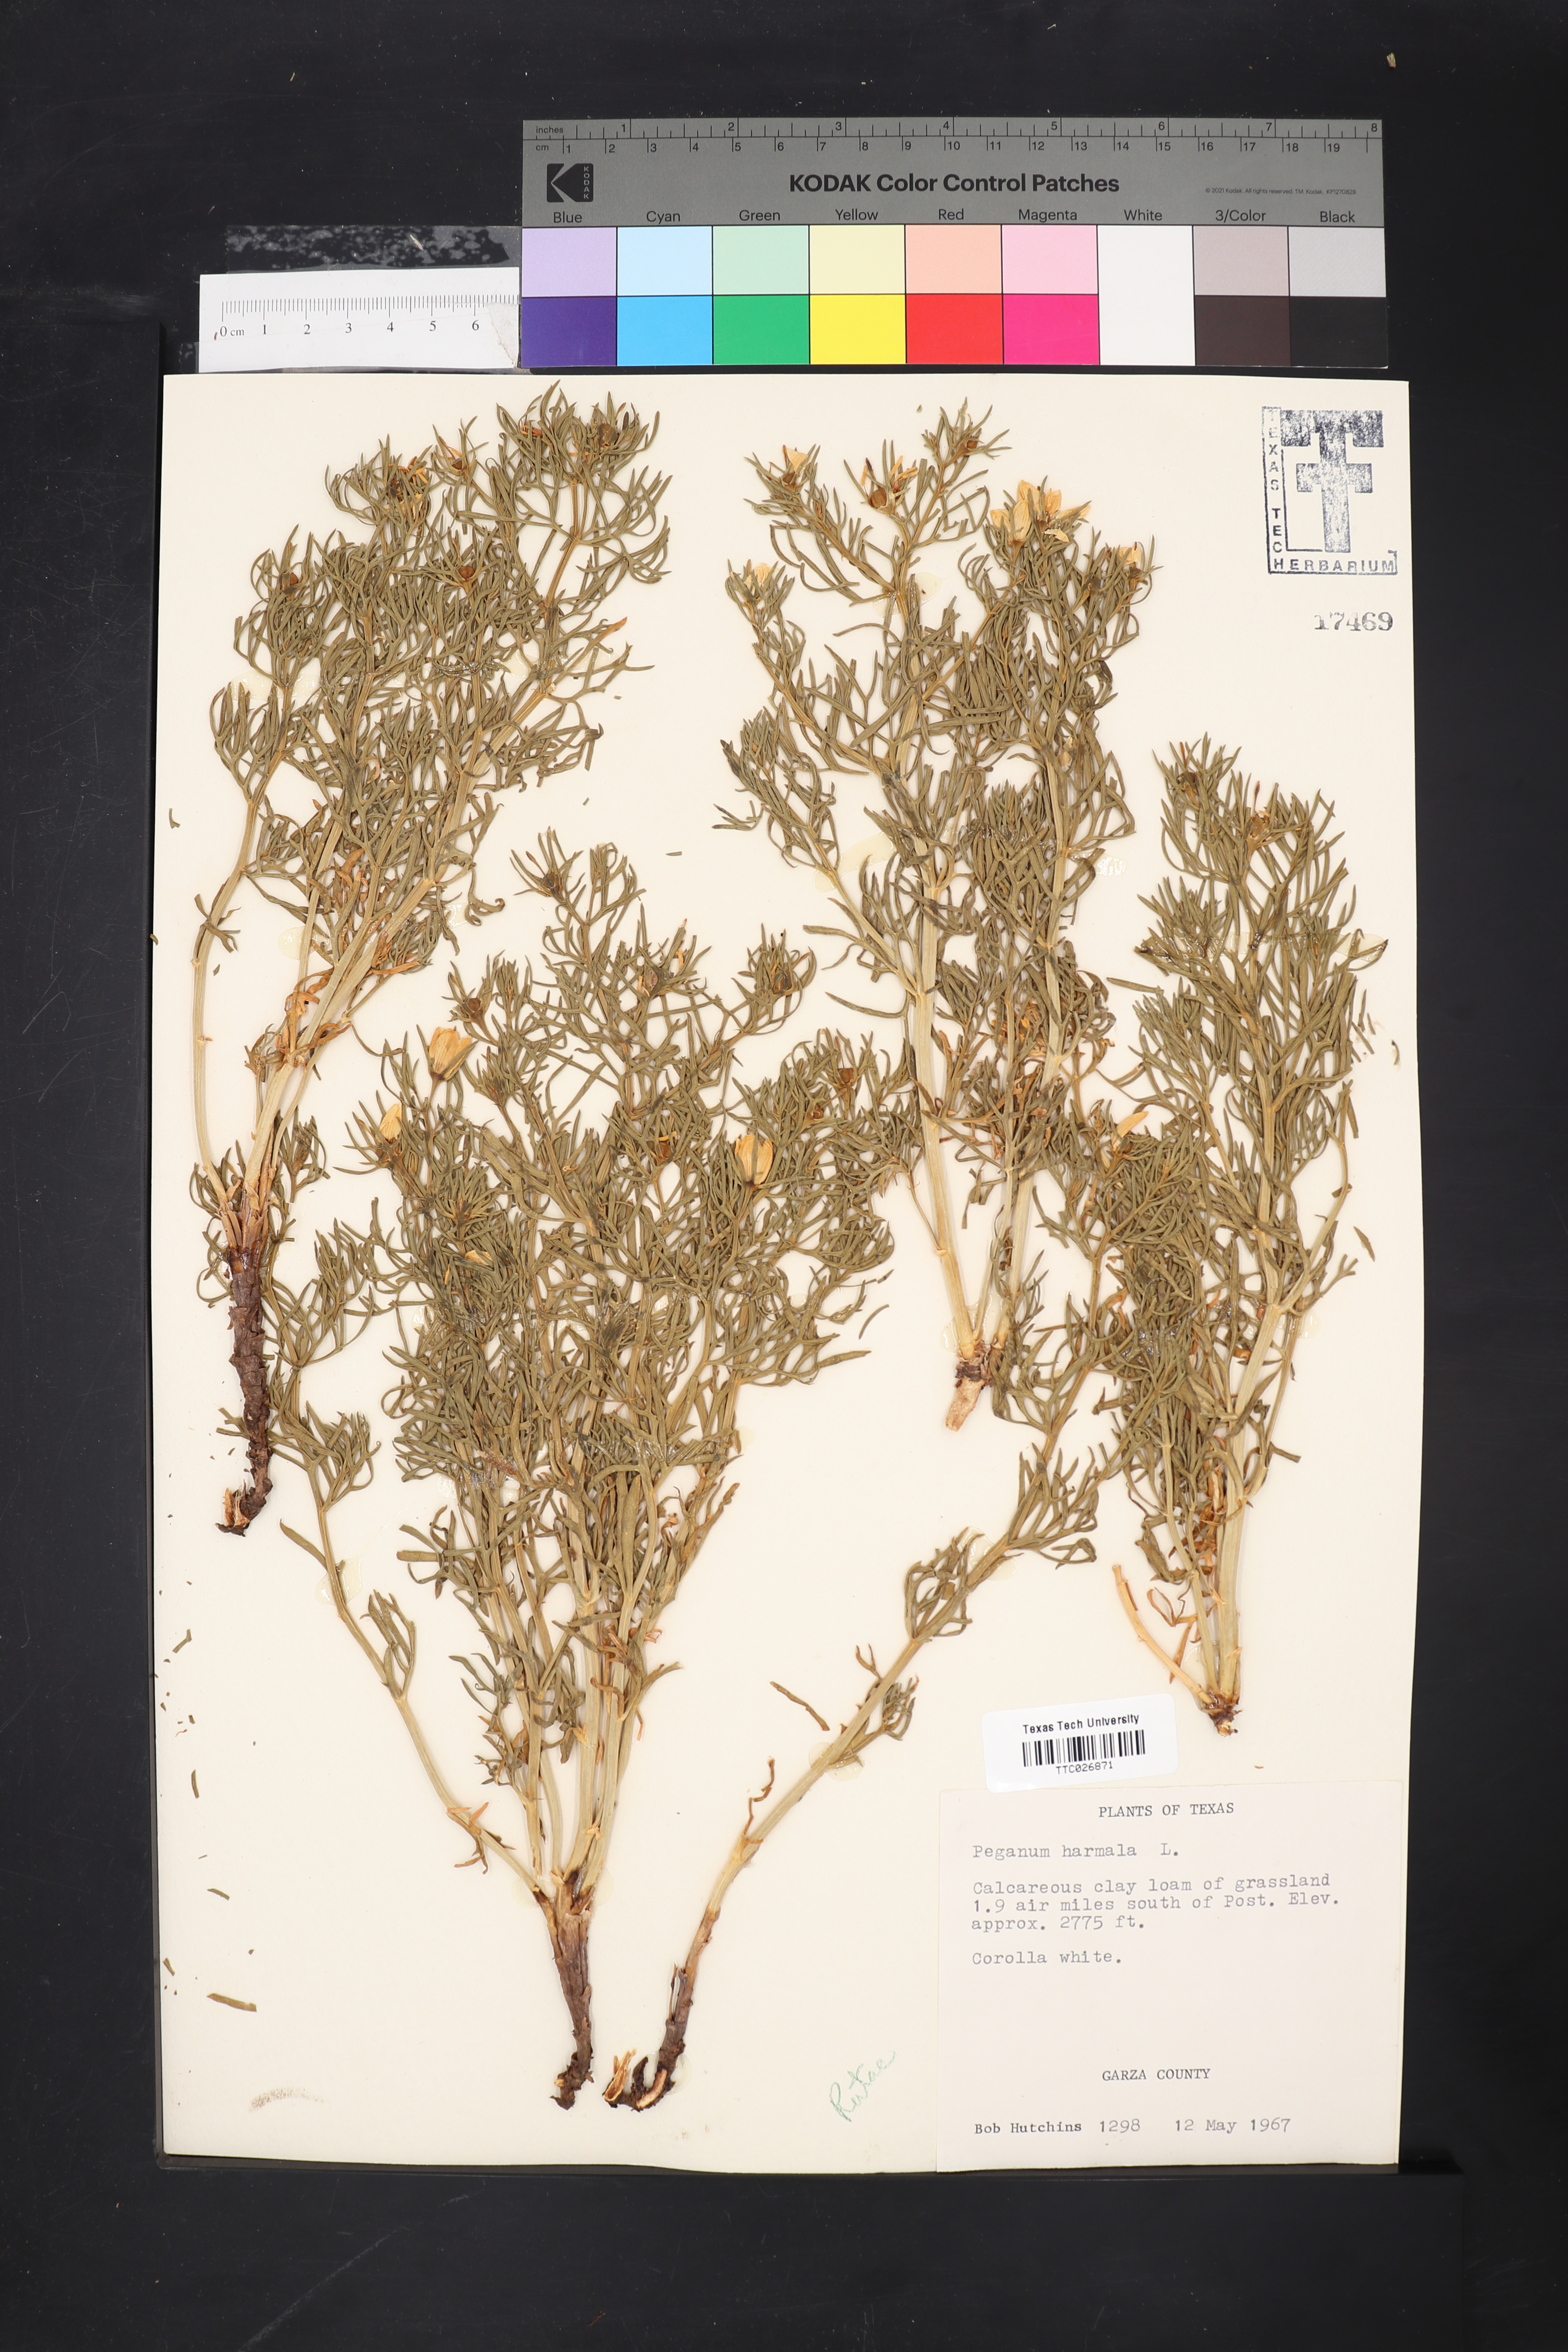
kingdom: Plantae
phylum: Tracheophyta
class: Magnoliopsida
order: Sapindales
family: Tetradiclidaceae
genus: Peganum
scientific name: Peganum harmala
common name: Harmal peganum
